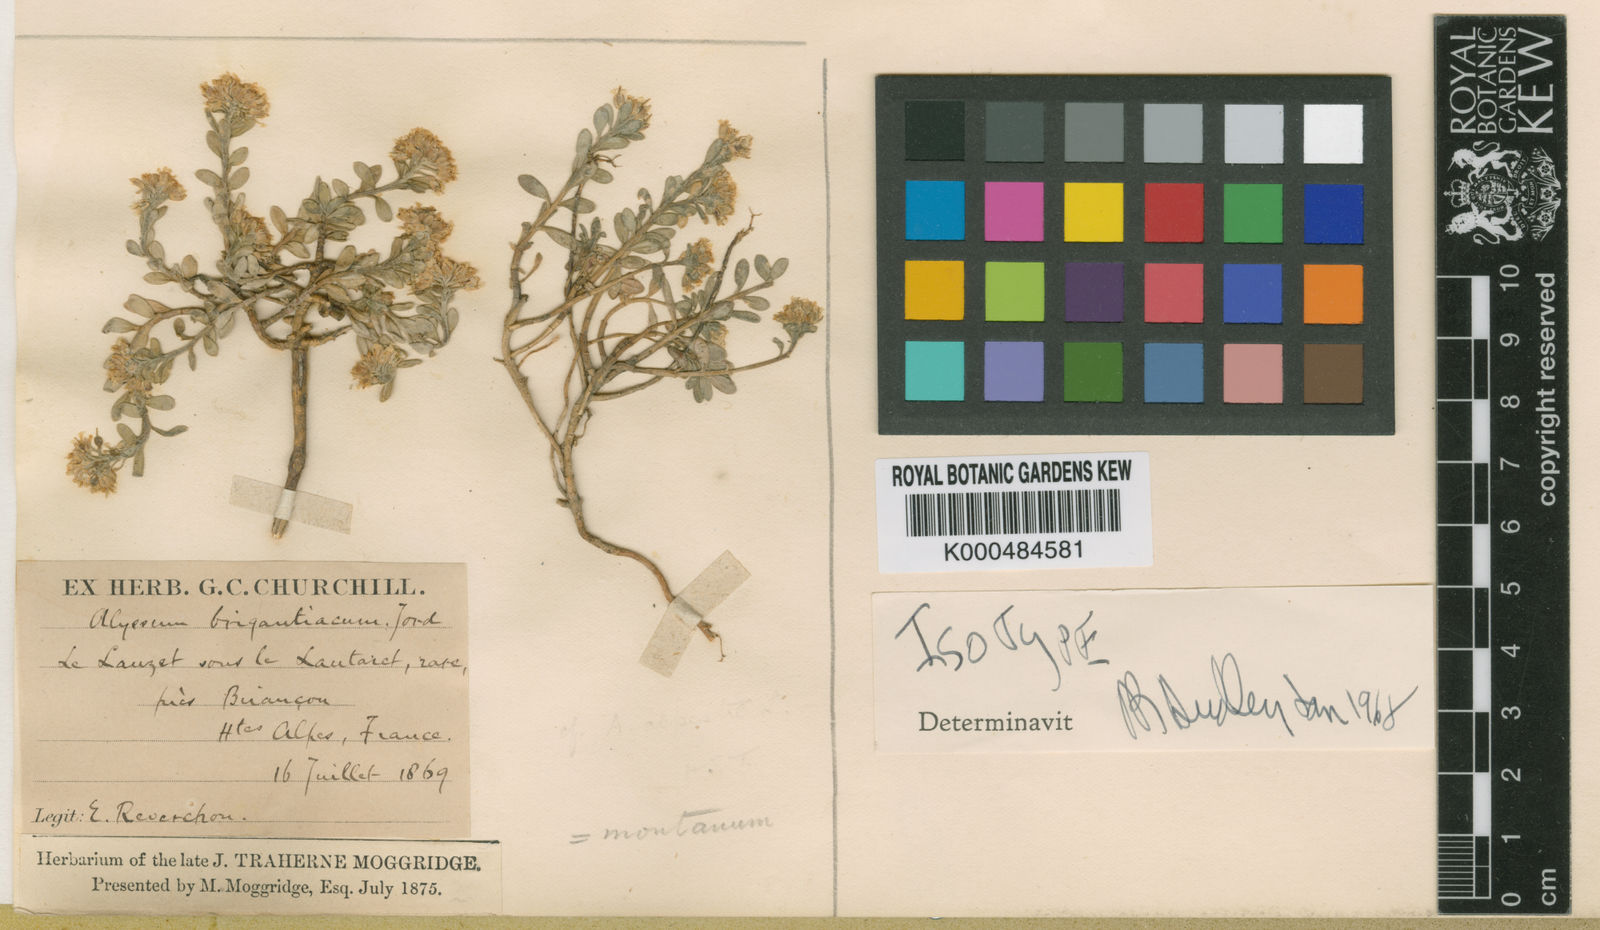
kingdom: Plantae
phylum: Tracheophyta
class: Magnoliopsida
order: Brassicales
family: Brassicaceae
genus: Alyssum
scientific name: Alyssum cuneifolium
